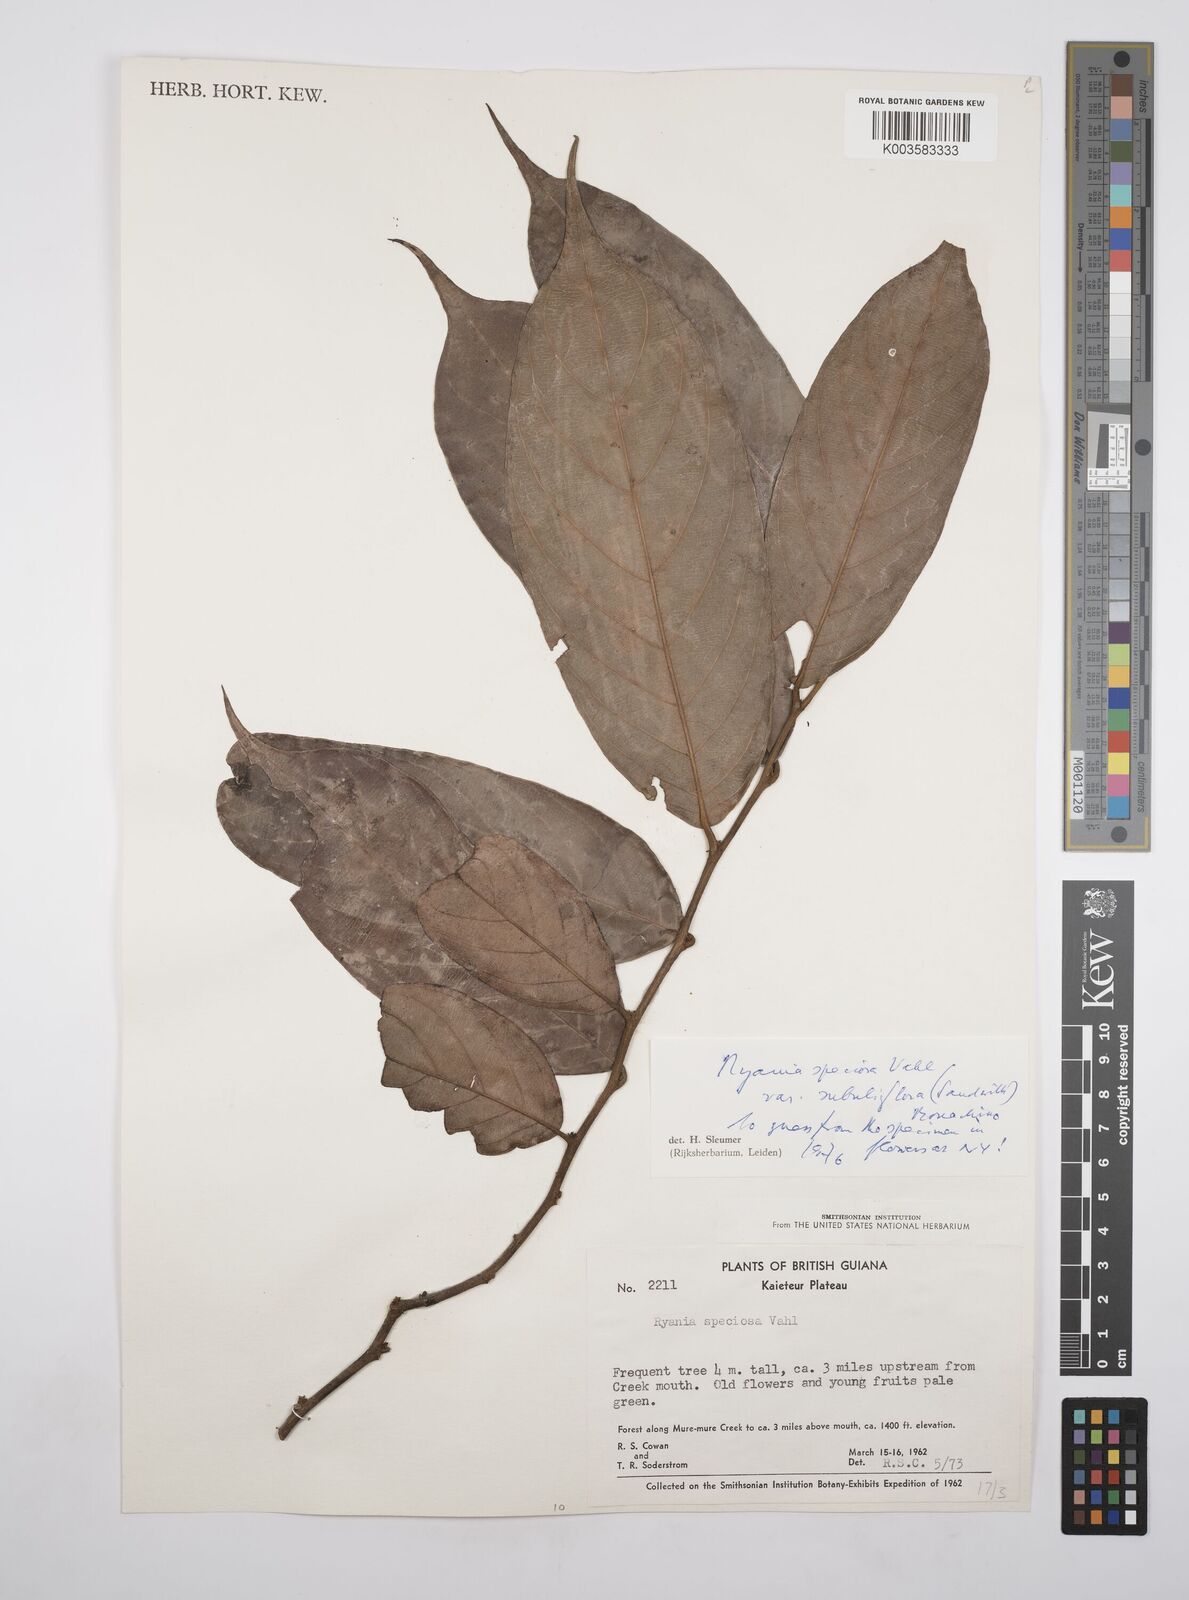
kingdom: Plantae
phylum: Tracheophyta
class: Magnoliopsida
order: Malpighiales
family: Salicaceae
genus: Ryania
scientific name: Ryania speciosa
